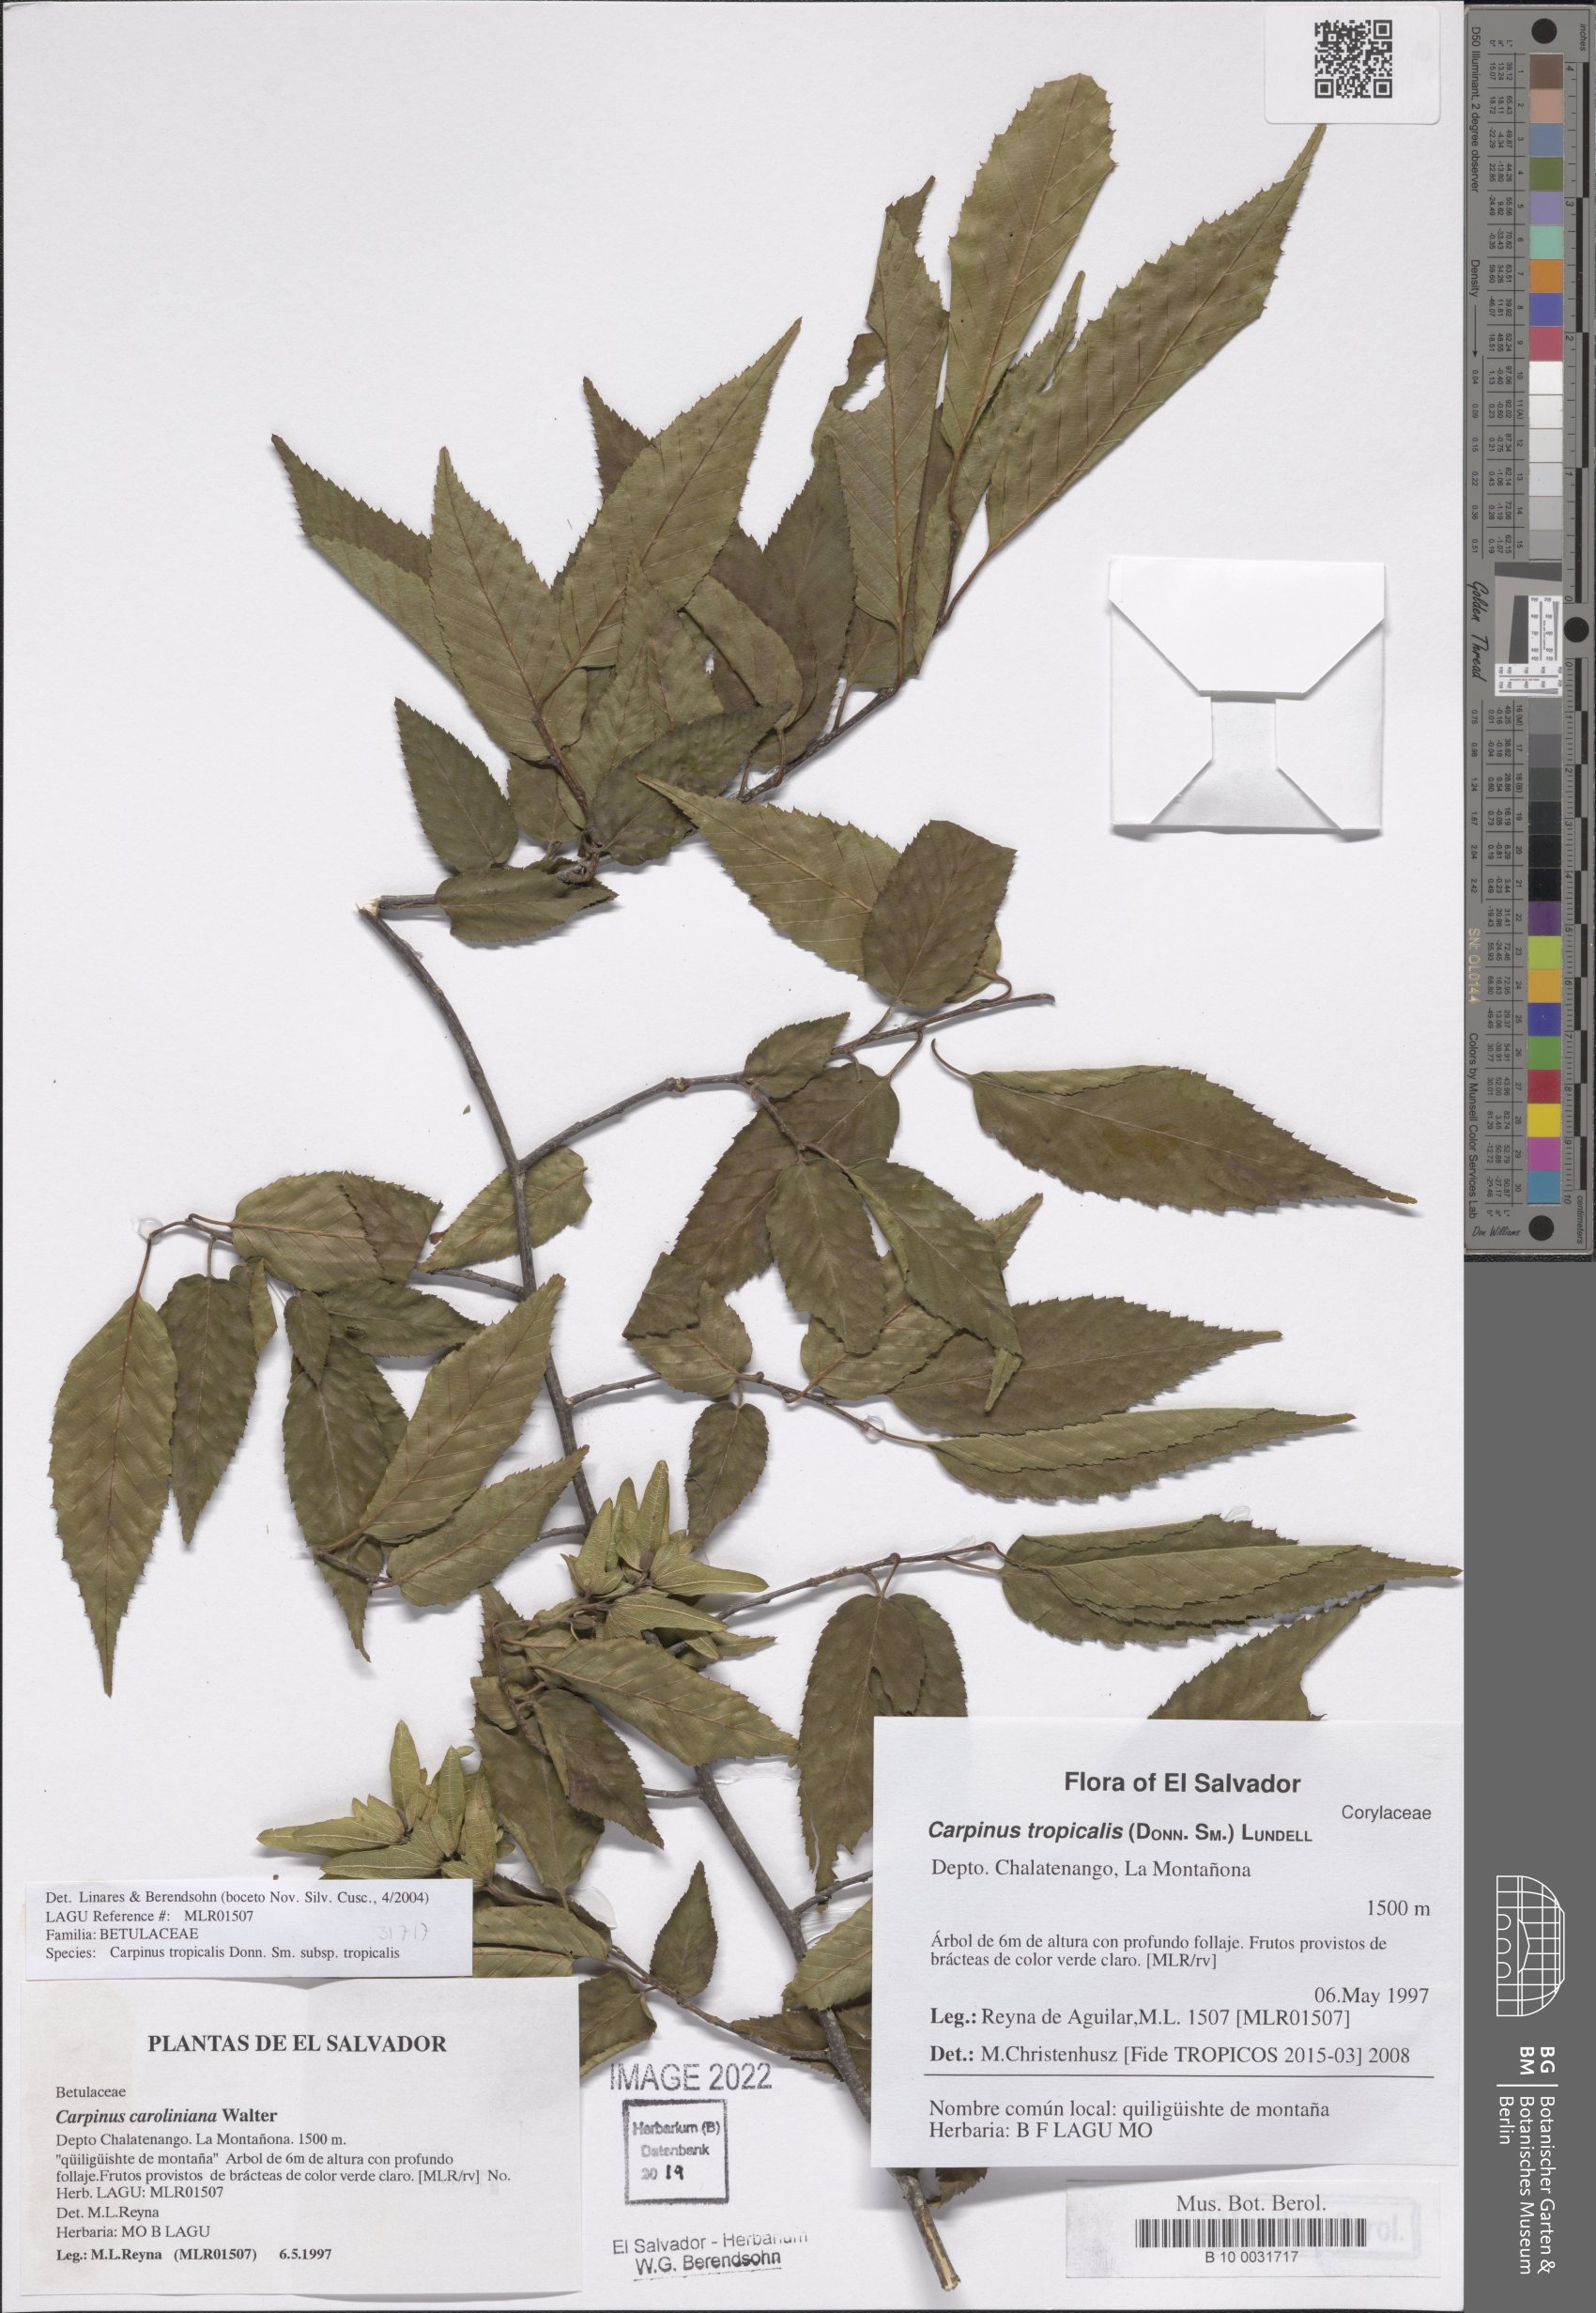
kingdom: Plantae
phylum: Tracheophyta
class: Magnoliopsida
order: Fagales
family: Betulaceae
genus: Carpinus
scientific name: Carpinus tropicalis
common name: Hornbeam
